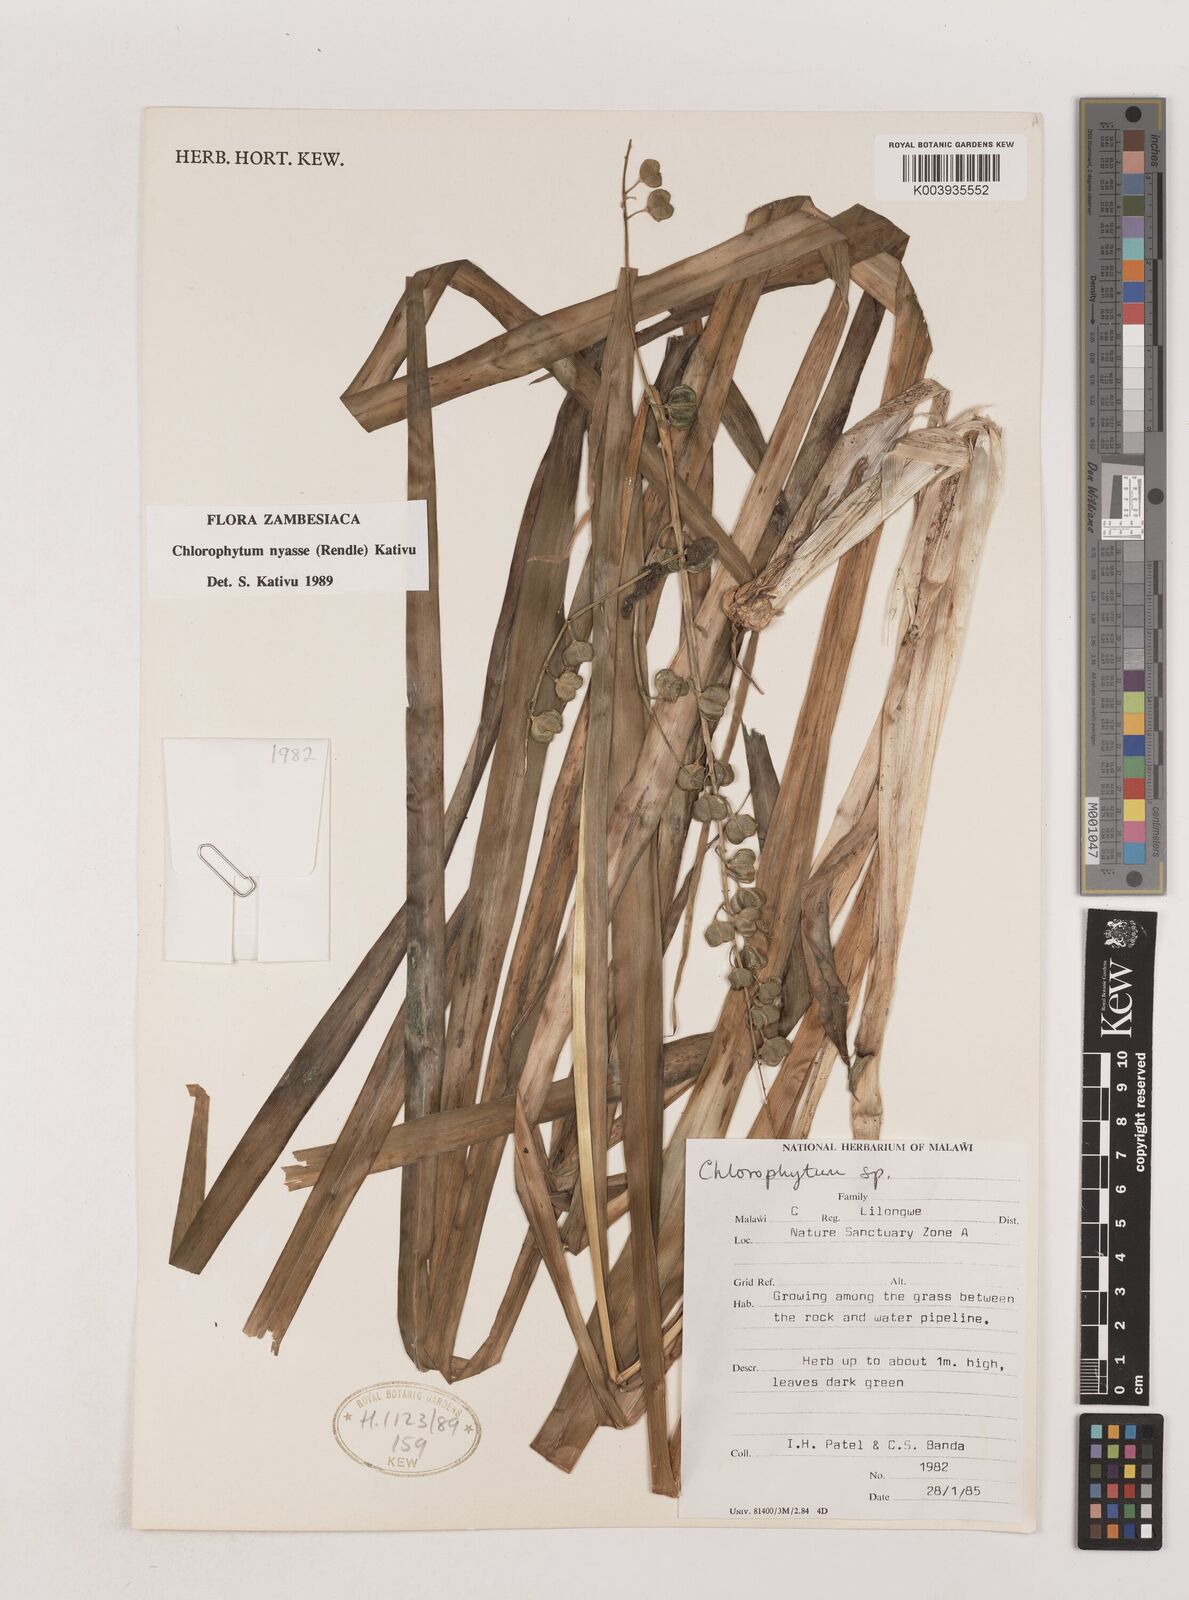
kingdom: Plantae
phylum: Tracheophyta
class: Liliopsida
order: Asparagales
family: Asparagaceae
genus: Chlorophytum
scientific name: Chlorophytum nyasae
